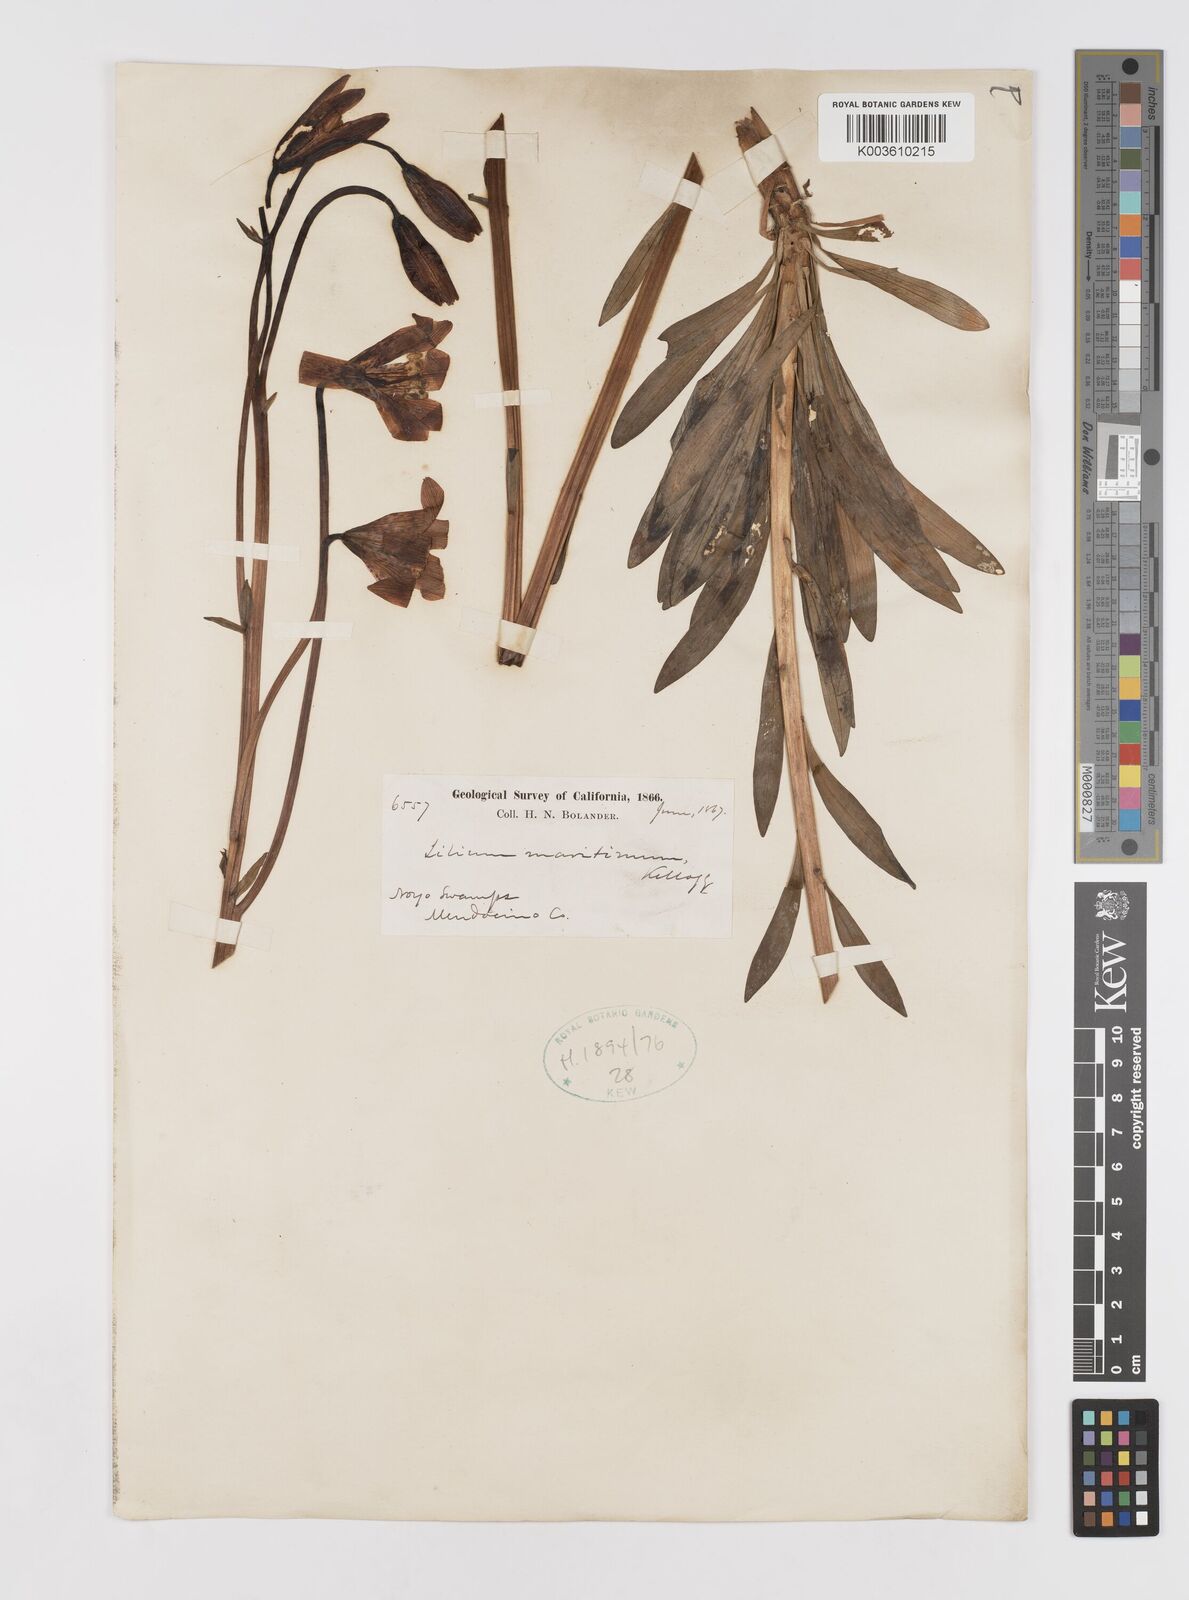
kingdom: Plantae
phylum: Tracheophyta
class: Liliopsida
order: Liliales
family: Liliaceae
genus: Lilium
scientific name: Lilium maritimum
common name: Coastal lily
